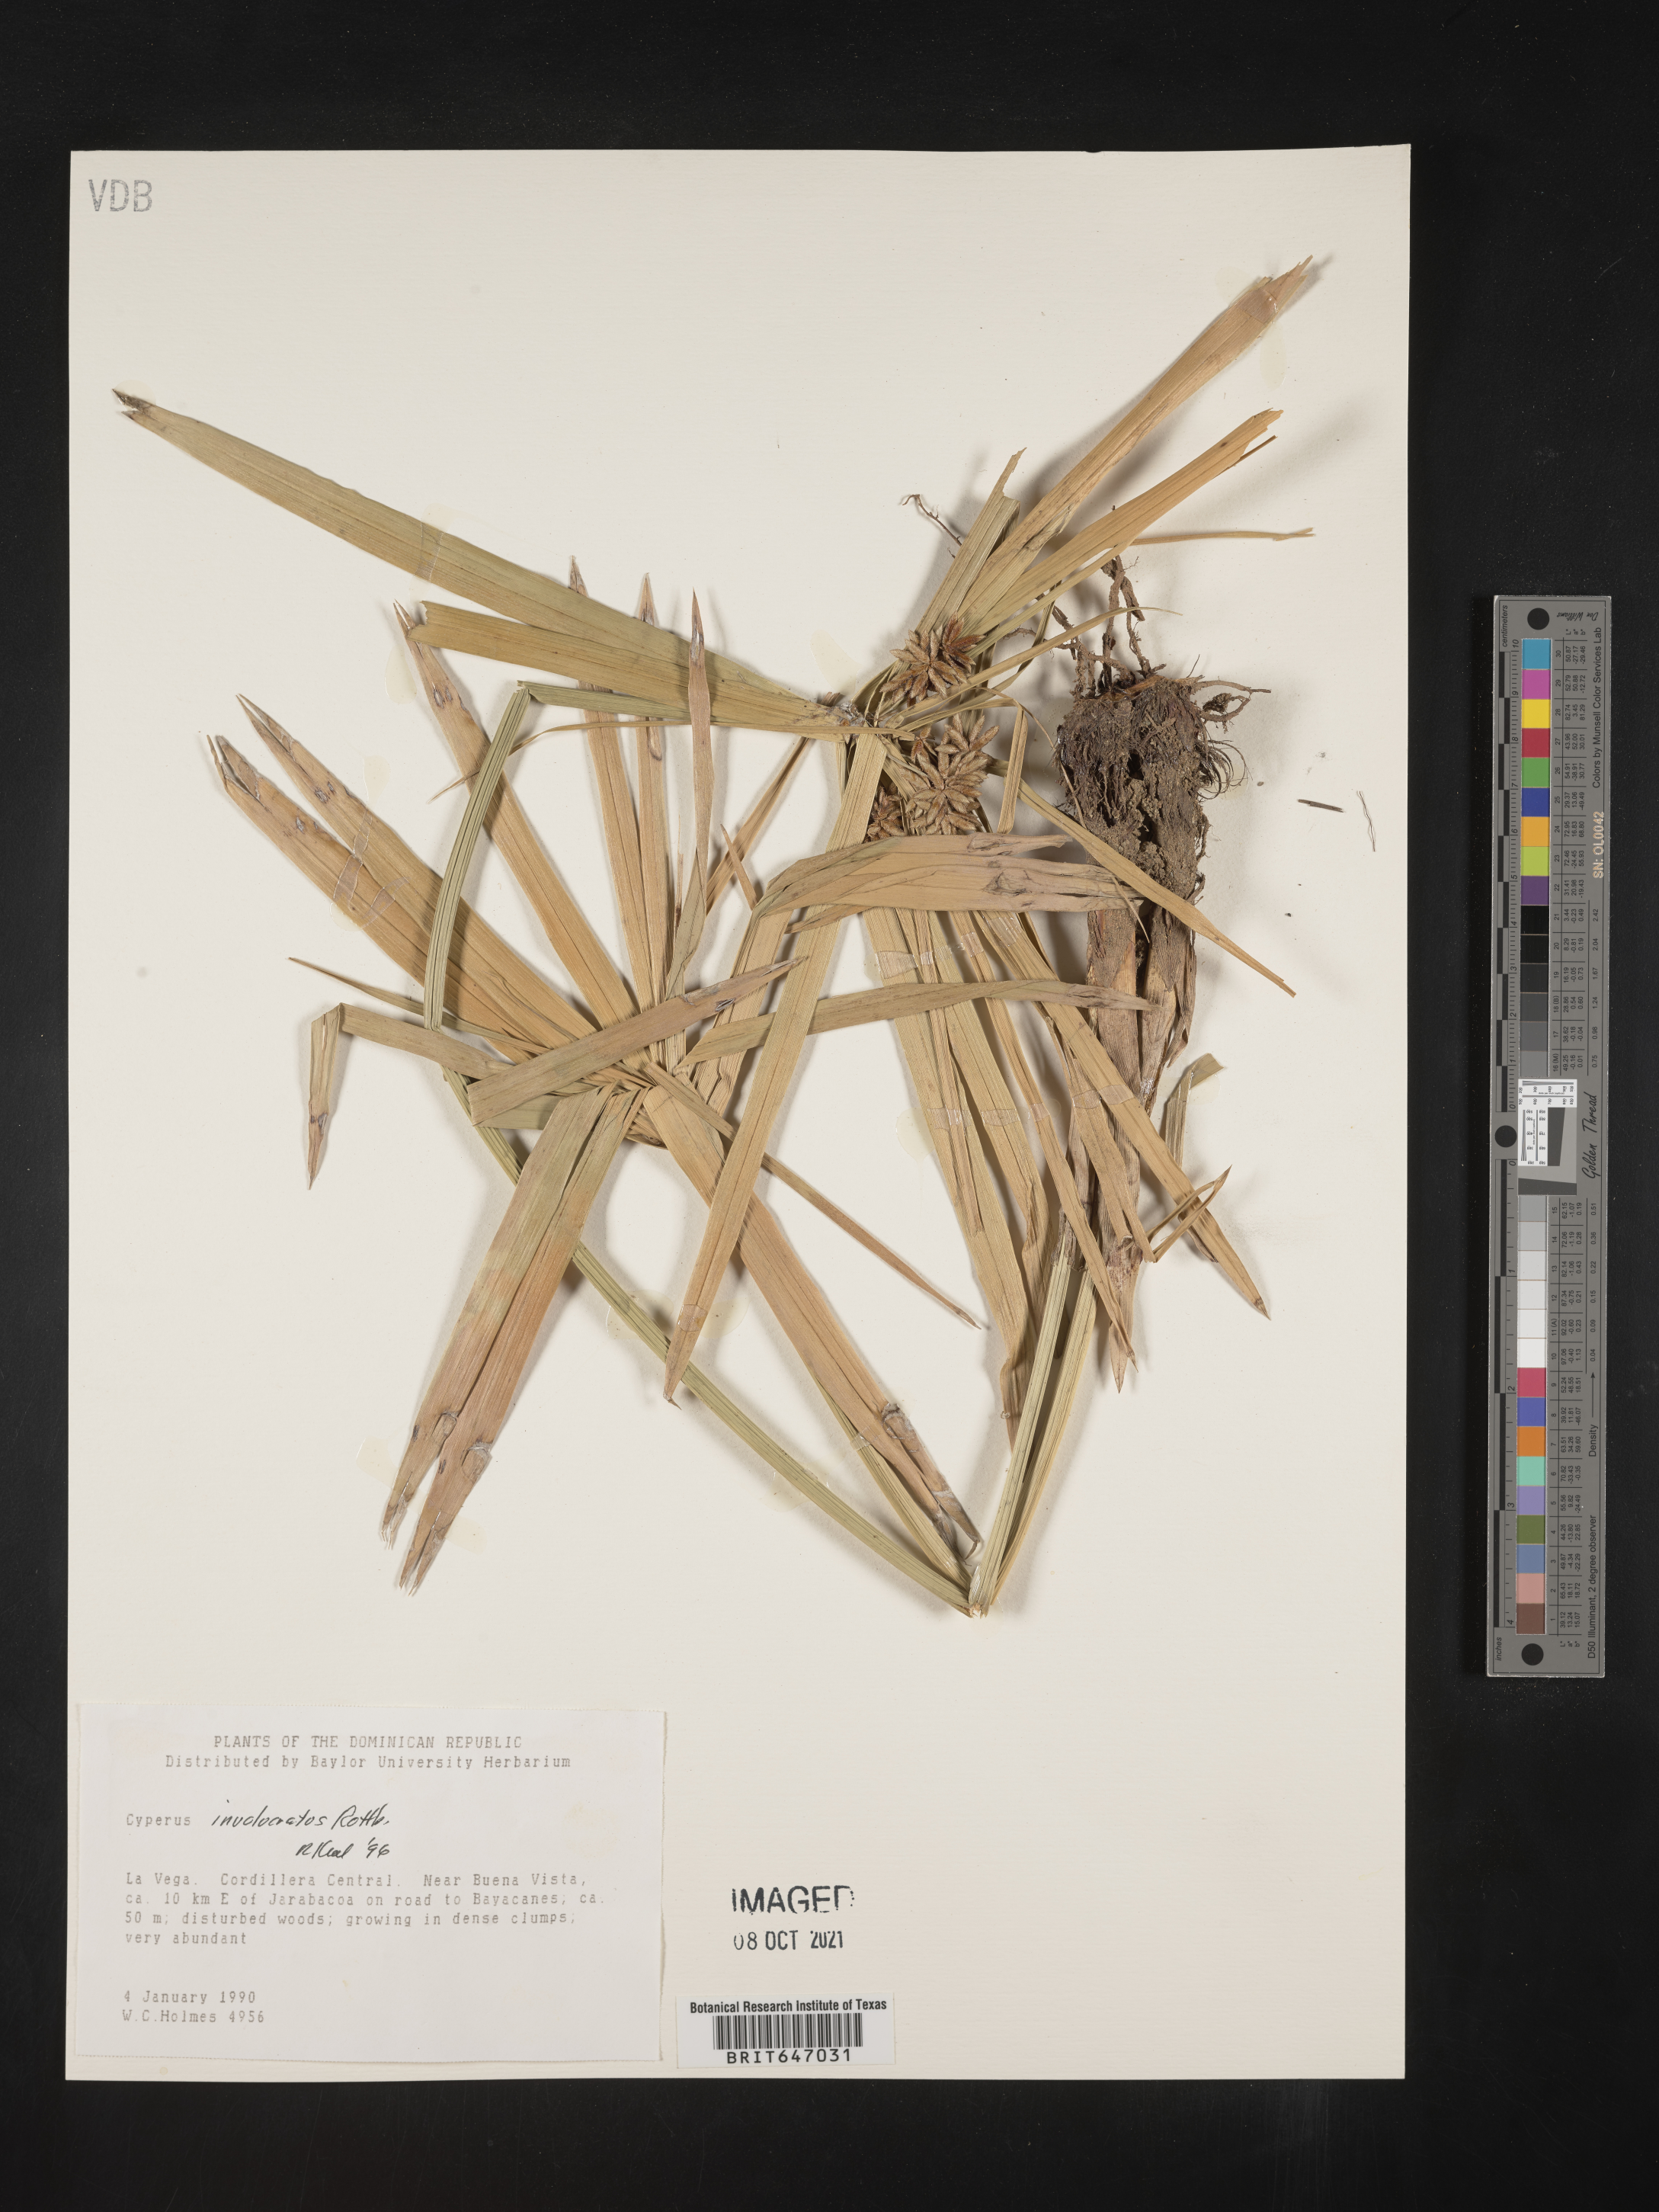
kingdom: Plantae
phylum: Tracheophyta
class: Liliopsida
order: Poales
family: Cyperaceae
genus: Cyperus
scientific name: Cyperus alternifolius
